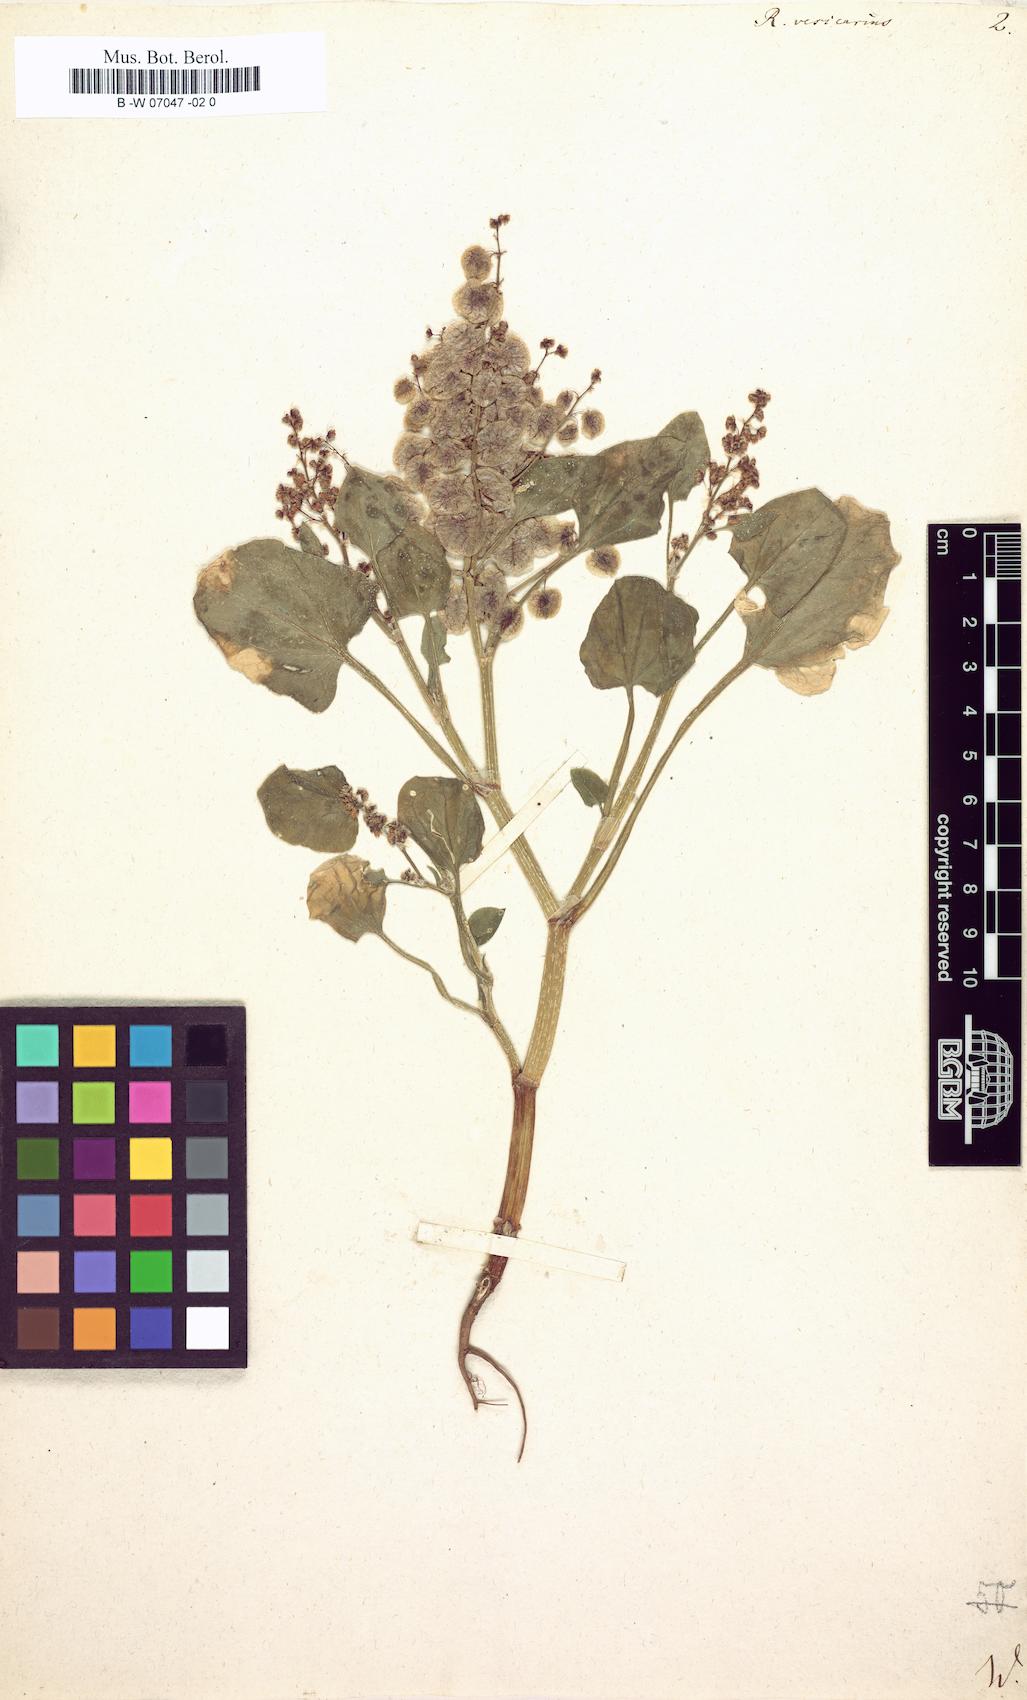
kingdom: Plantae
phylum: Tracheophyta
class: Magnoliopsida
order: Caryophyllales
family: Polygonaceae
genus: Rumex
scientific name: Rumex vesicarius
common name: Bladder dock
